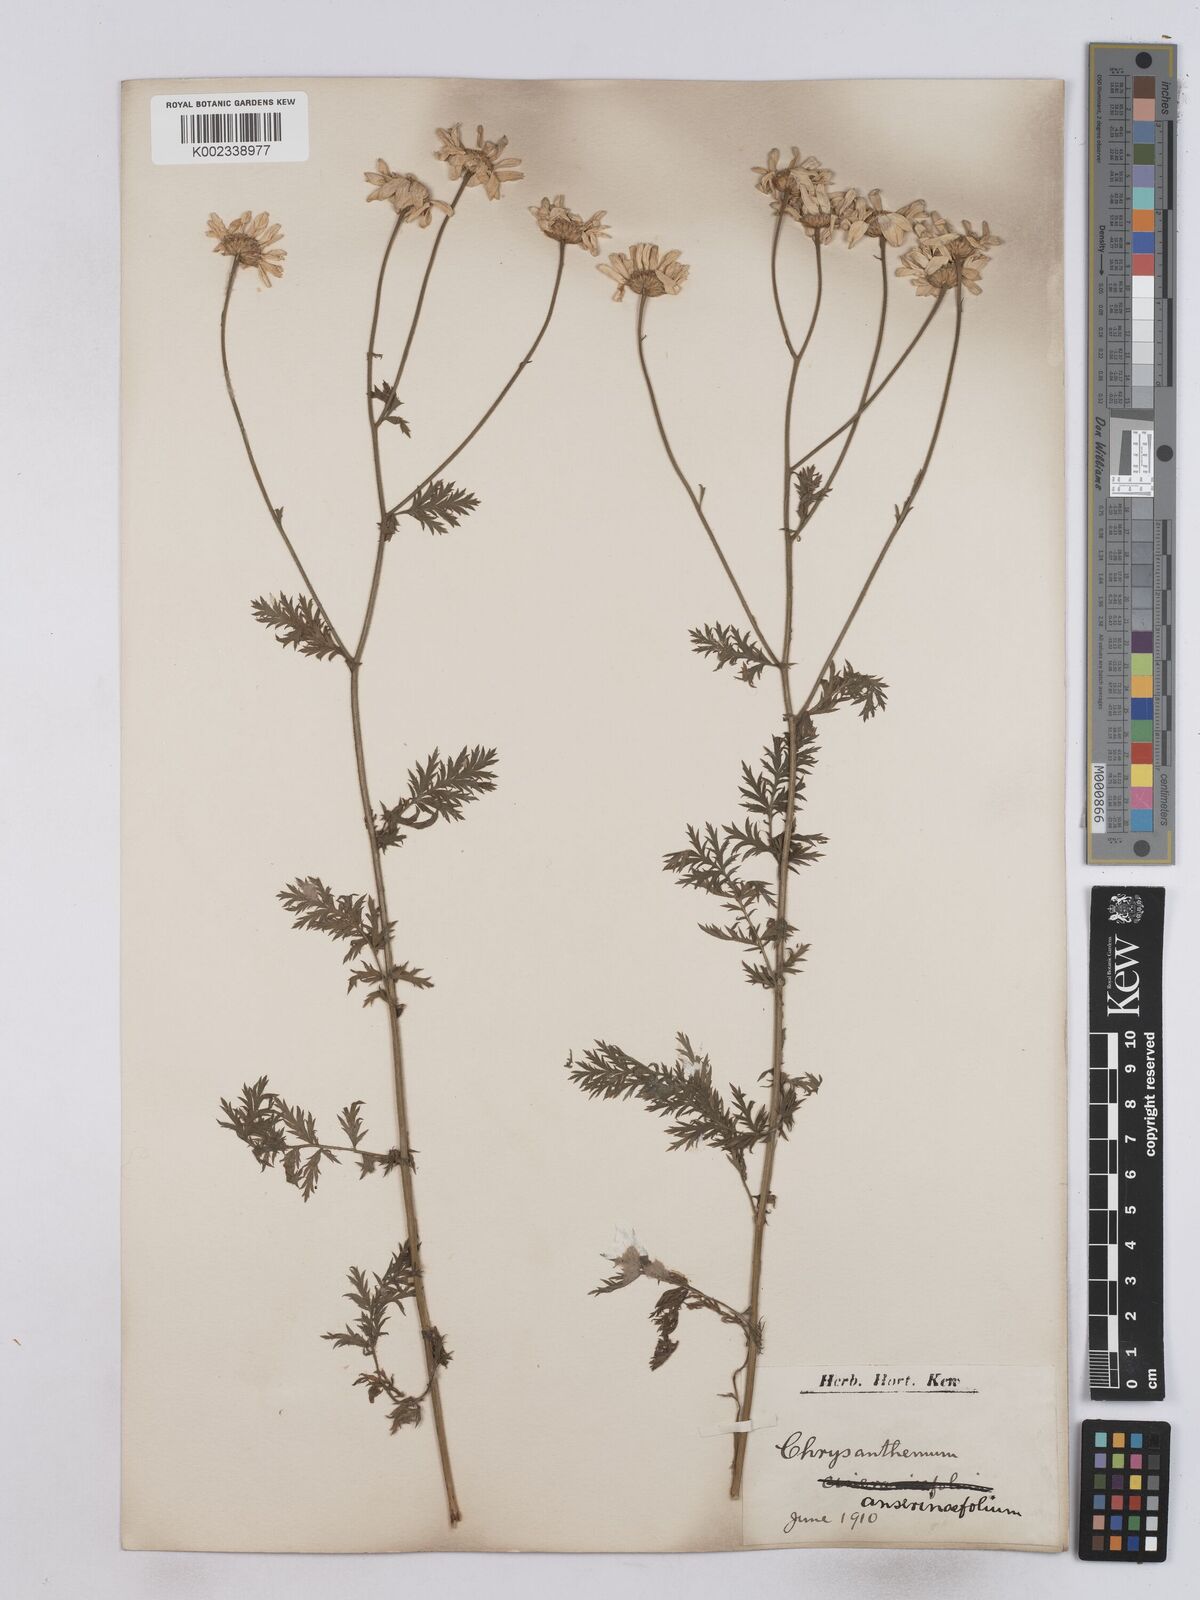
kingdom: Plantae
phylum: Tracheophyta
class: Magnoliopsida
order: Asterales
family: Asteraceae
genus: Tanacetum
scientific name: Tanacetum poteriifolium
